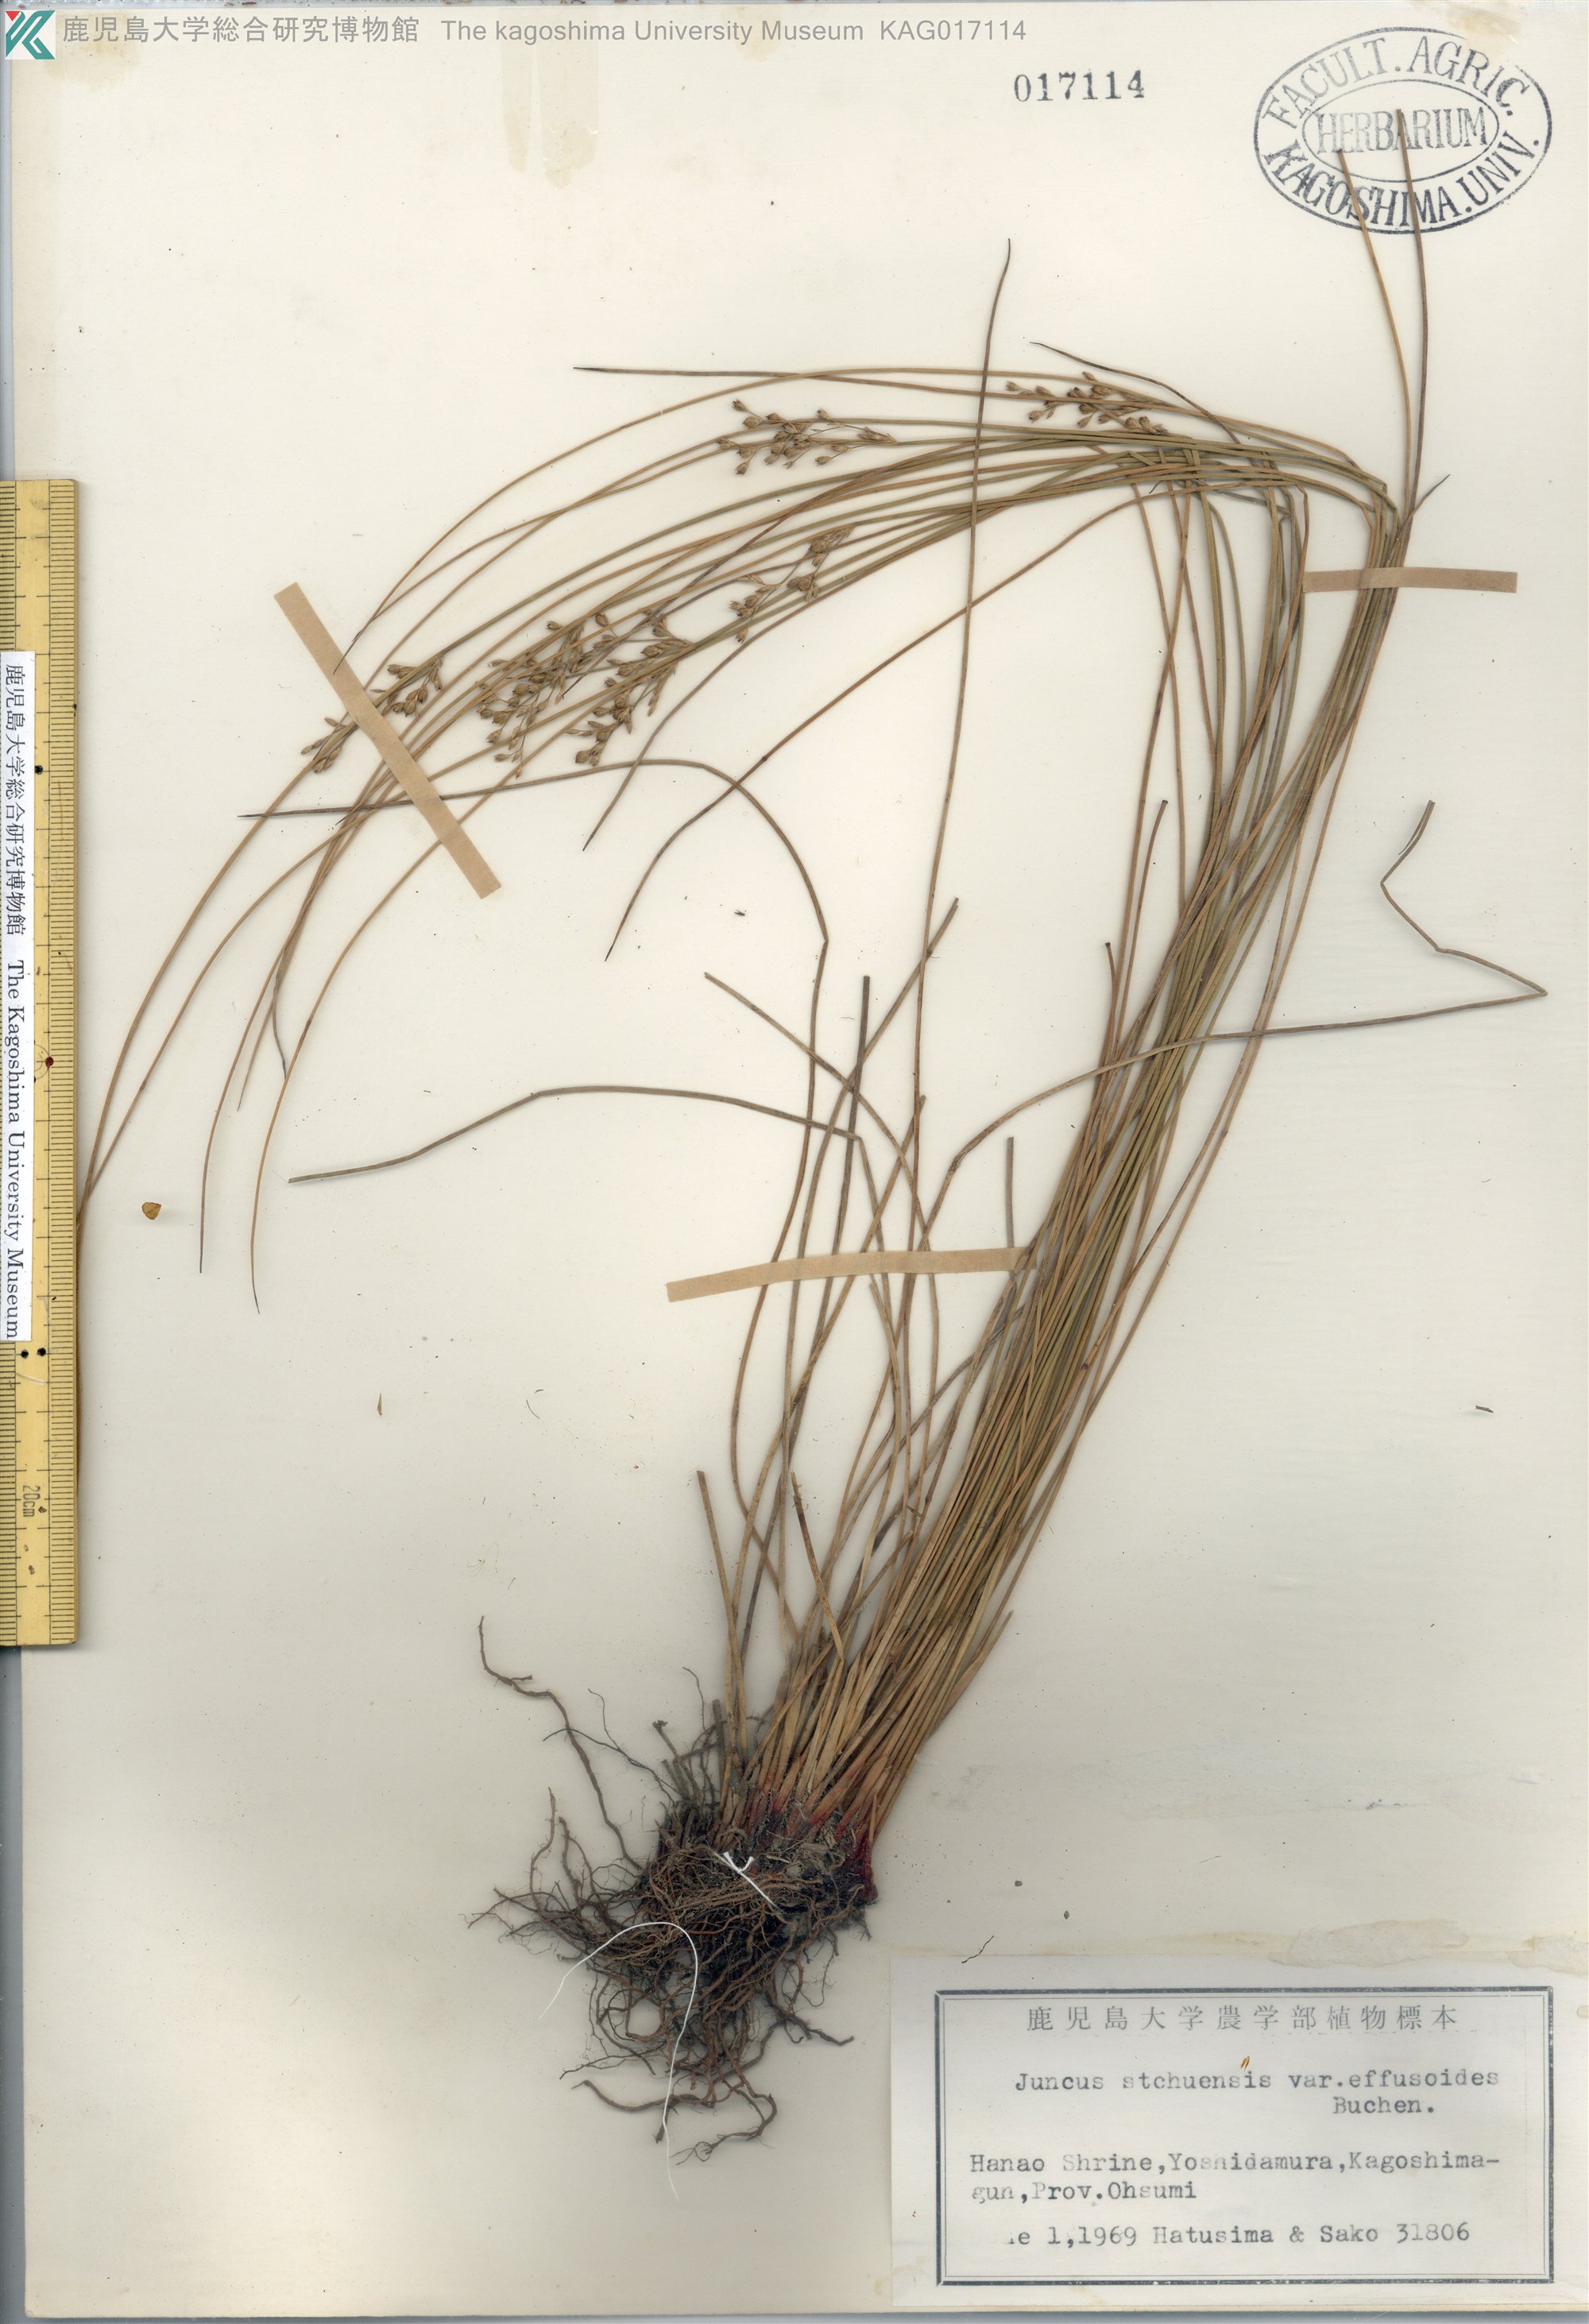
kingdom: Plantae
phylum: Tracheophyta
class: Liliopsida
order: Poales
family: Juncaceae
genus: Juncus
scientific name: Juncus setchuensis
